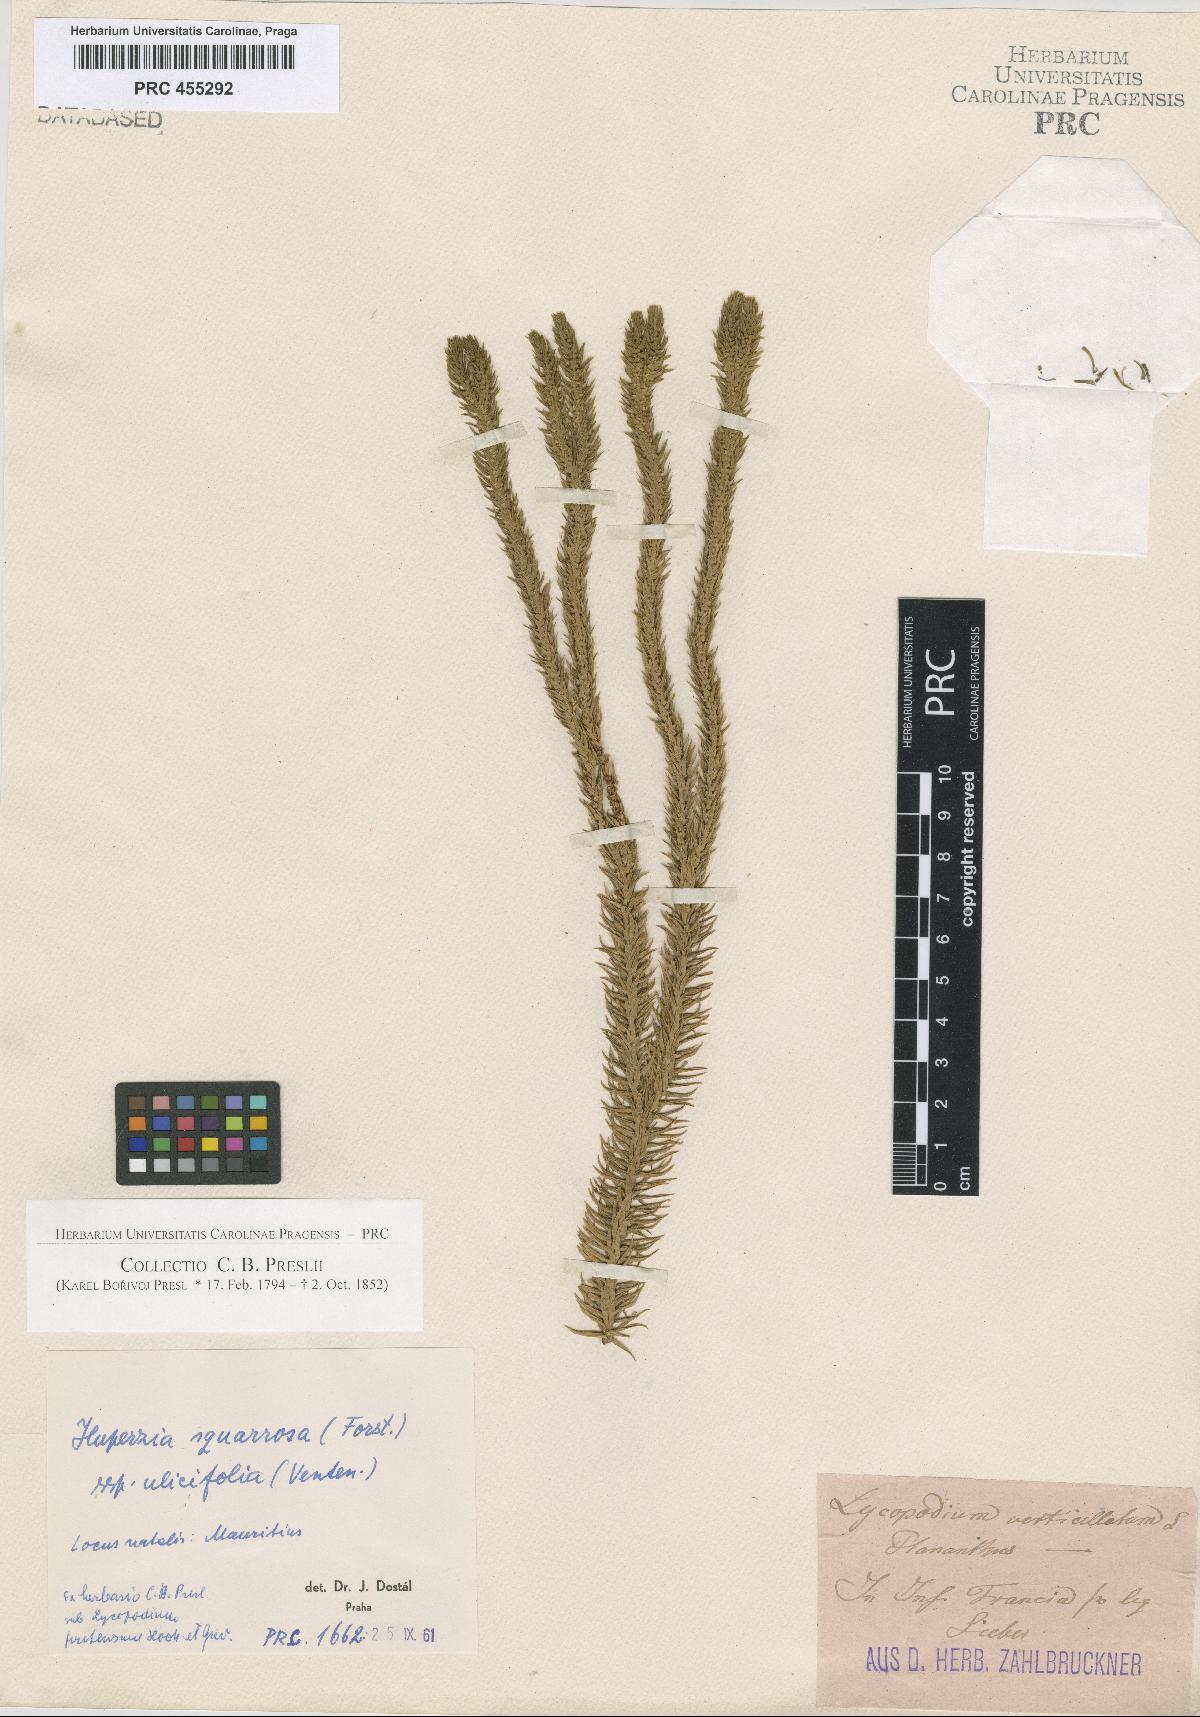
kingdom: Plantae
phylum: Tracheophyta
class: Lycopodiopsida
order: Lycopodiales
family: Lycopodiaceae
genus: Phlegmariurus
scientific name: Phlegmariurus squarrosus
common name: Rock tassel-fern
